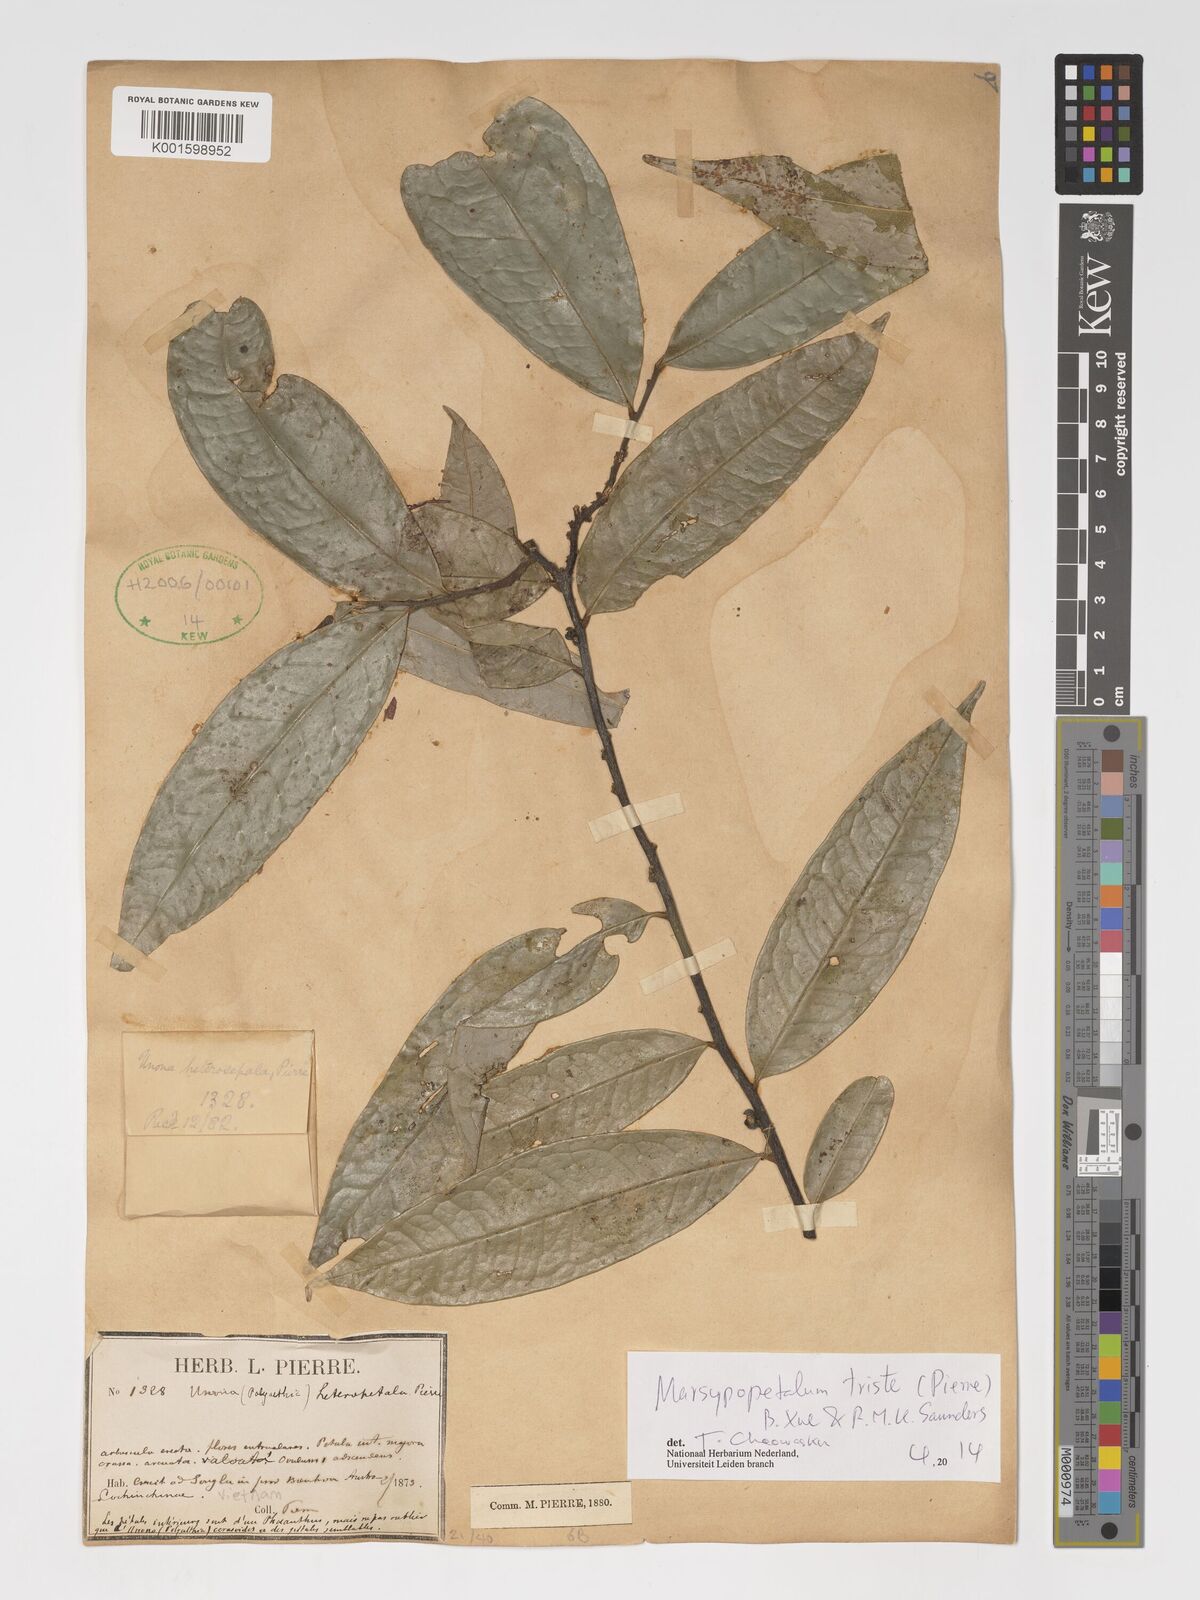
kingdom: Plantae
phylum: Tracheophyta
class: Magnoliopsida
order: Magnoliales
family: Annonaceae
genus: Marsypopetalum
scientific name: Marsypopetalum triste
